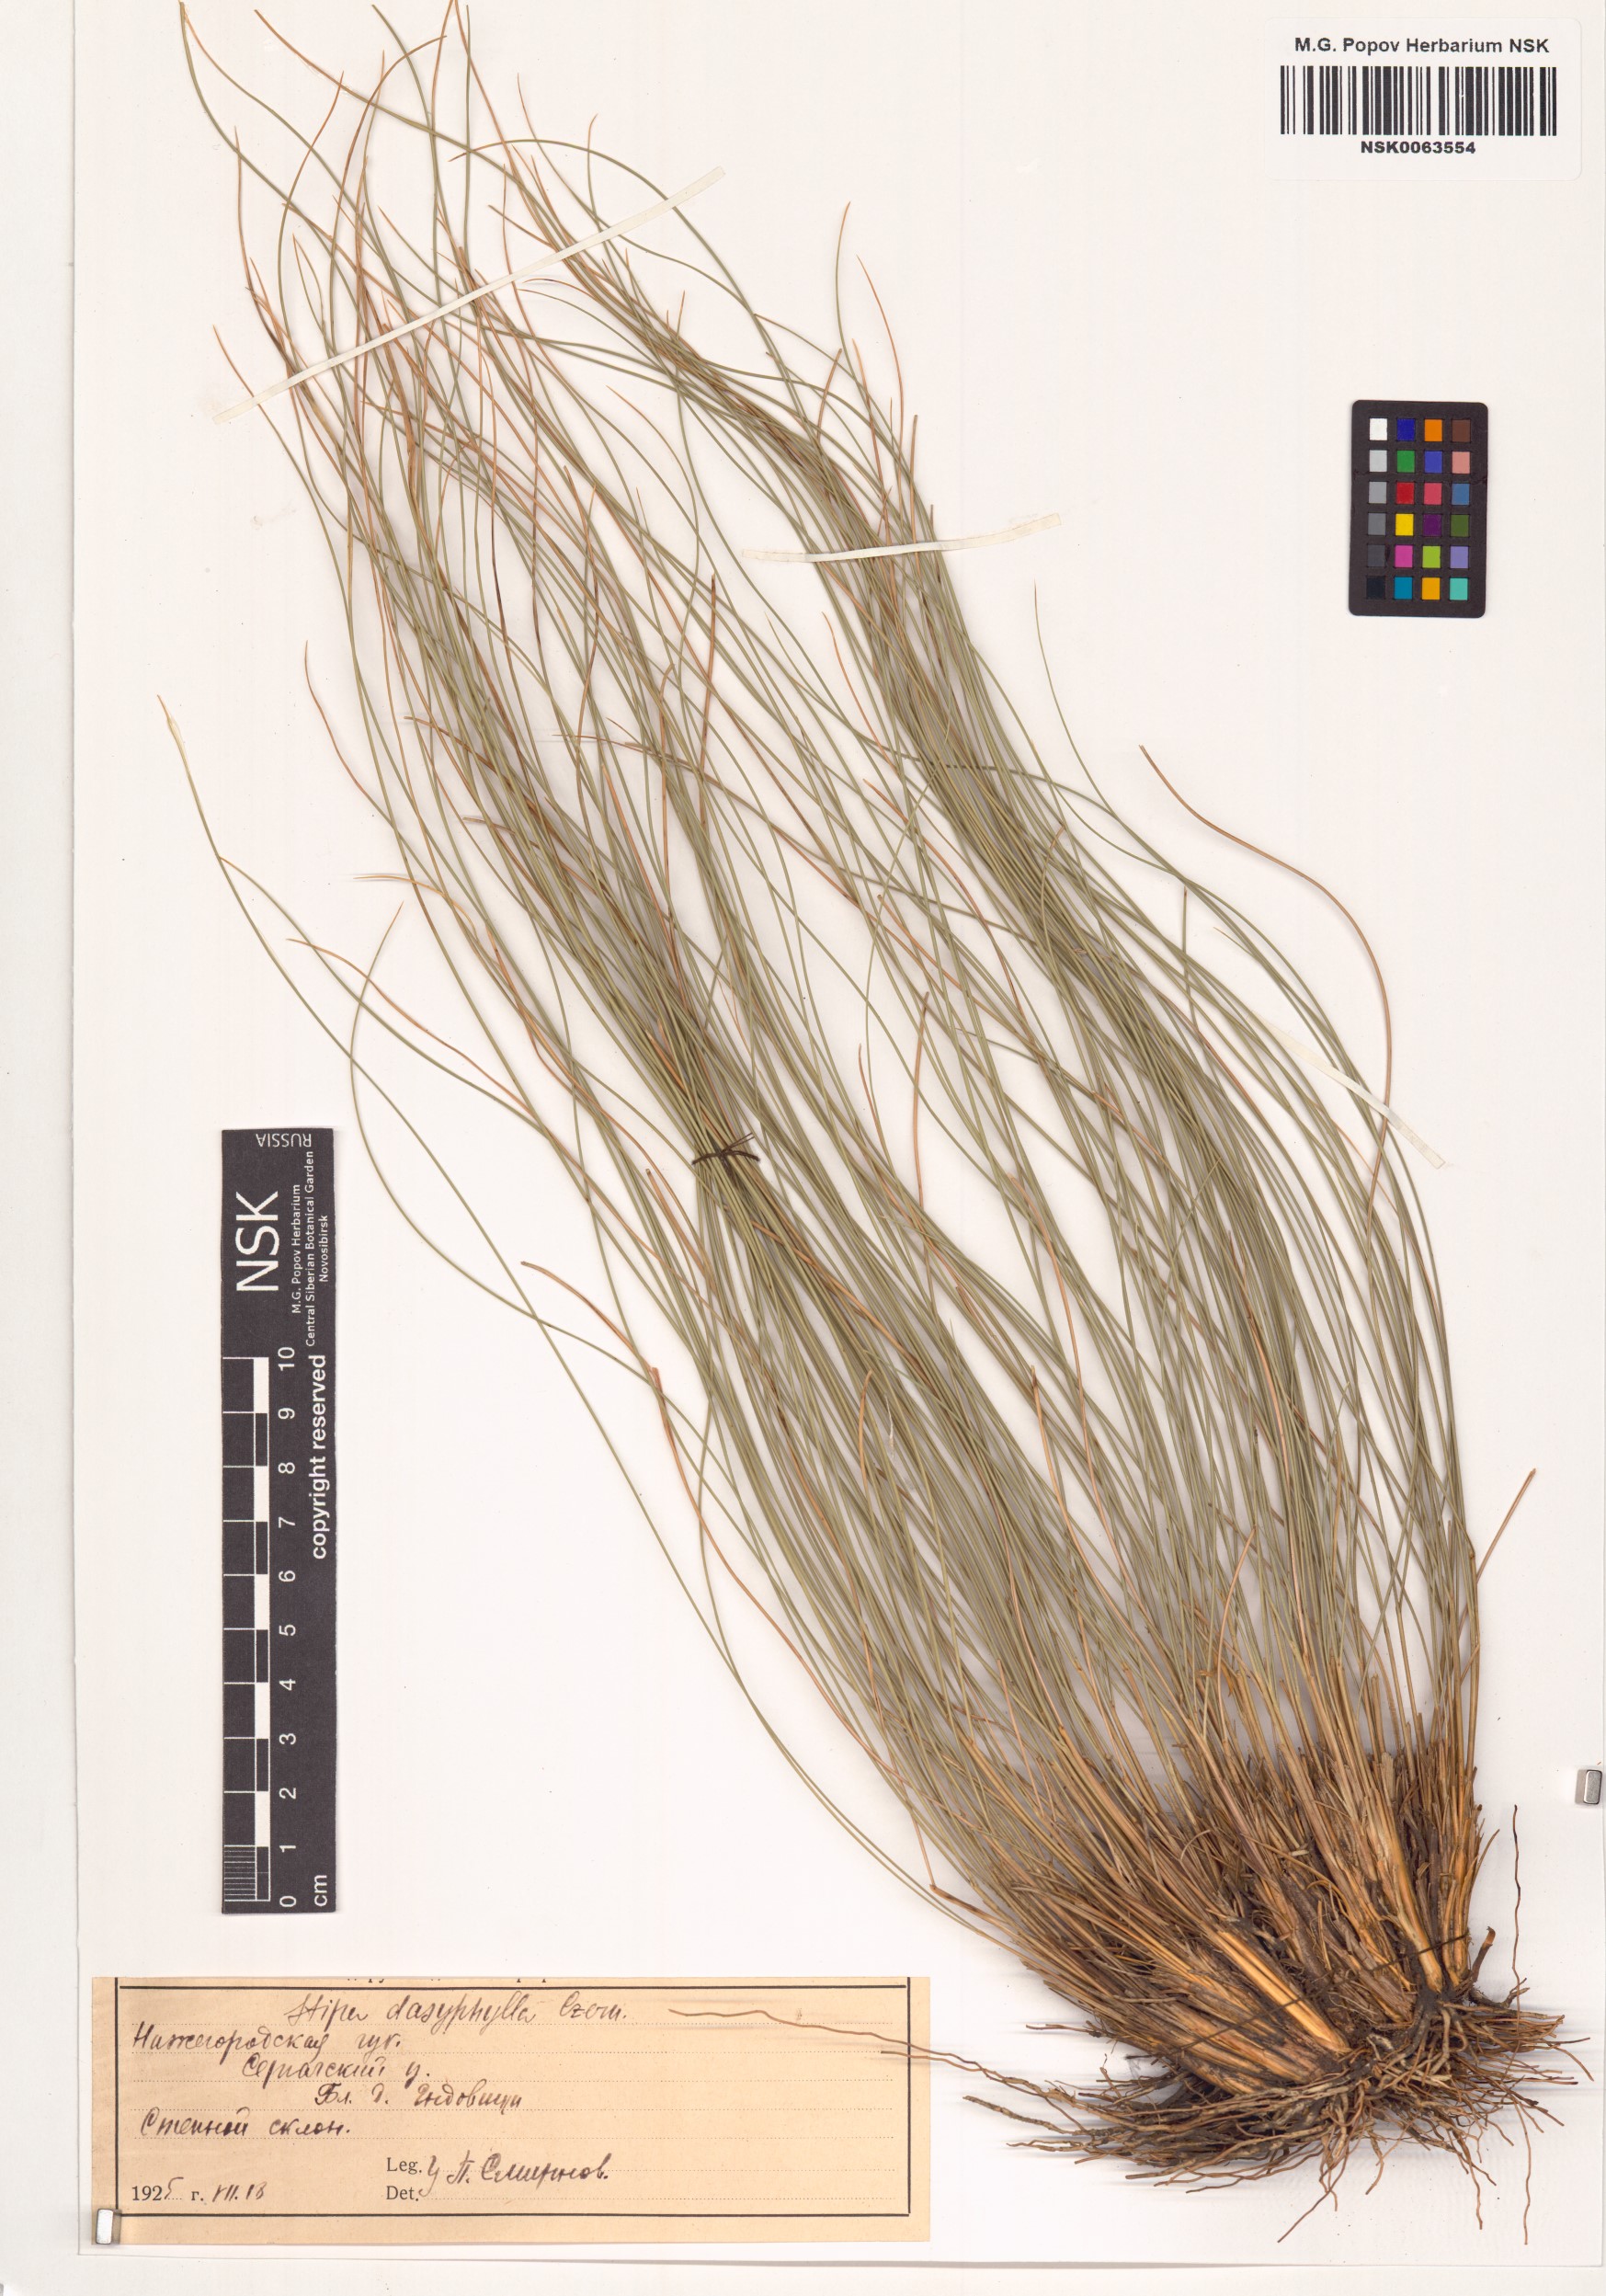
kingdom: Plantae
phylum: Tracheophyta
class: Liliopsida
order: Poales
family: Poaceae
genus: Stipa
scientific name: Stipa dasyphylla
